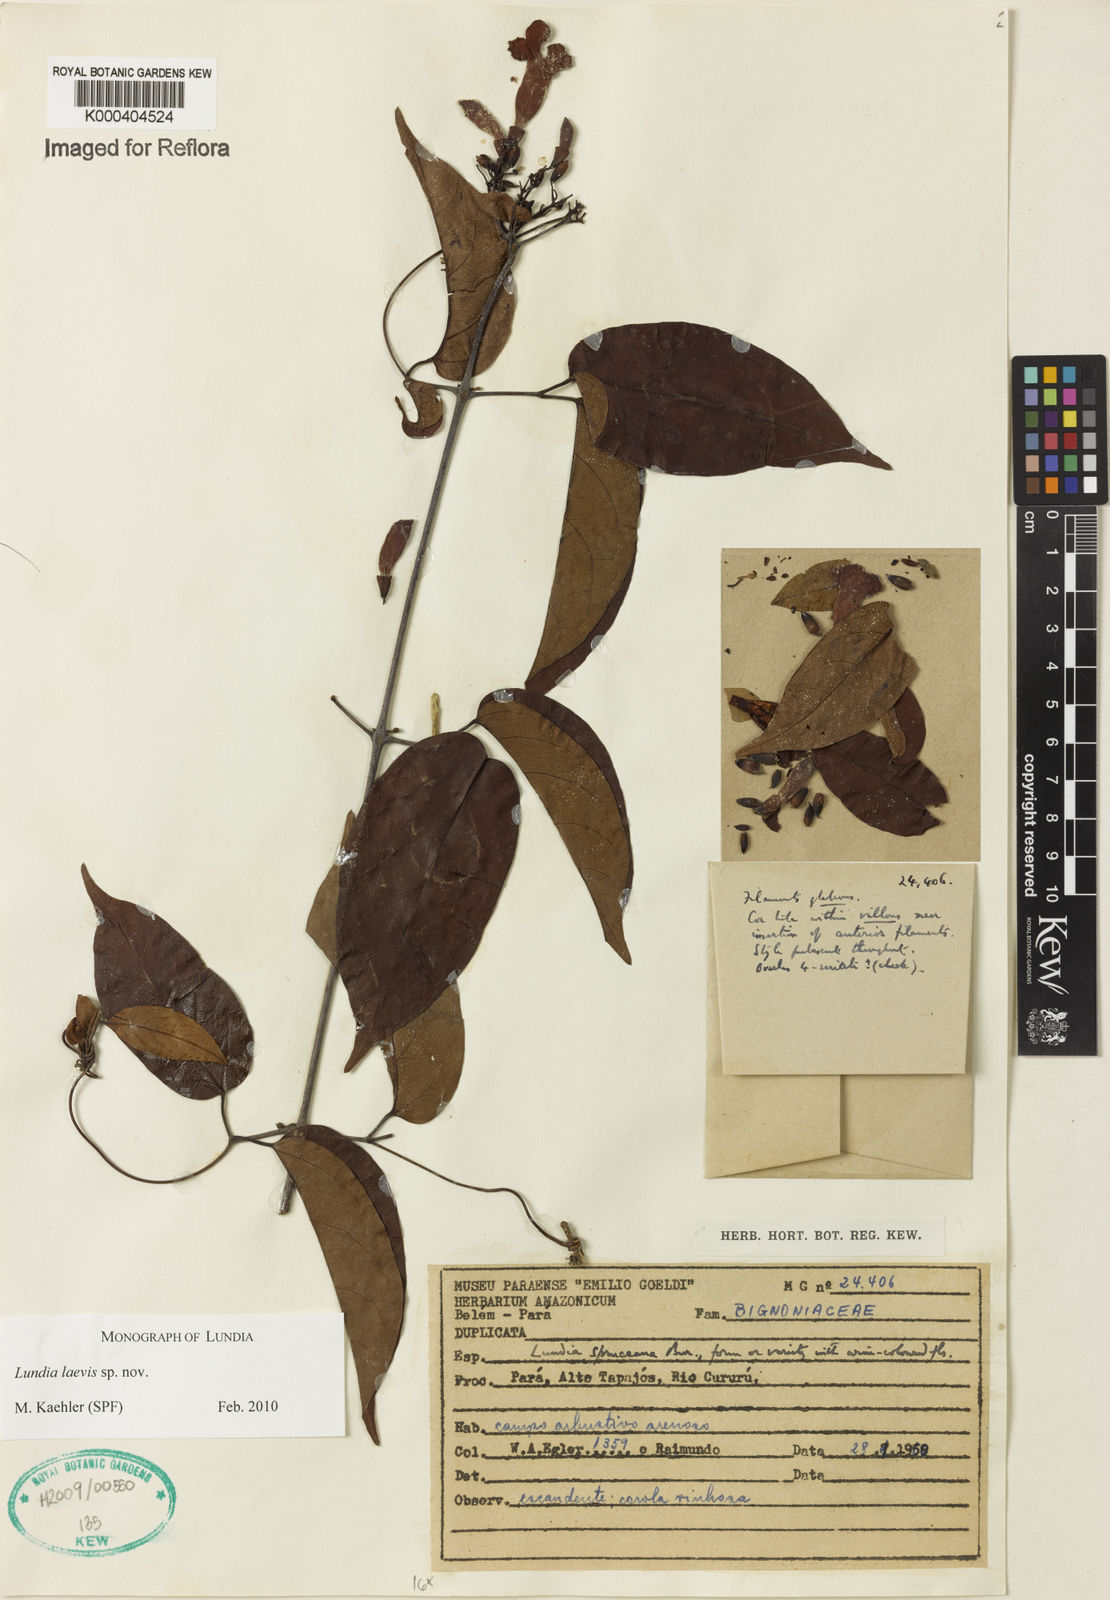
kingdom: Plantae
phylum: Tracheophyta
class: Magnoliopsida
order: Lamiales
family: Bignoniaceae
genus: Lundia
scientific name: Lundia
